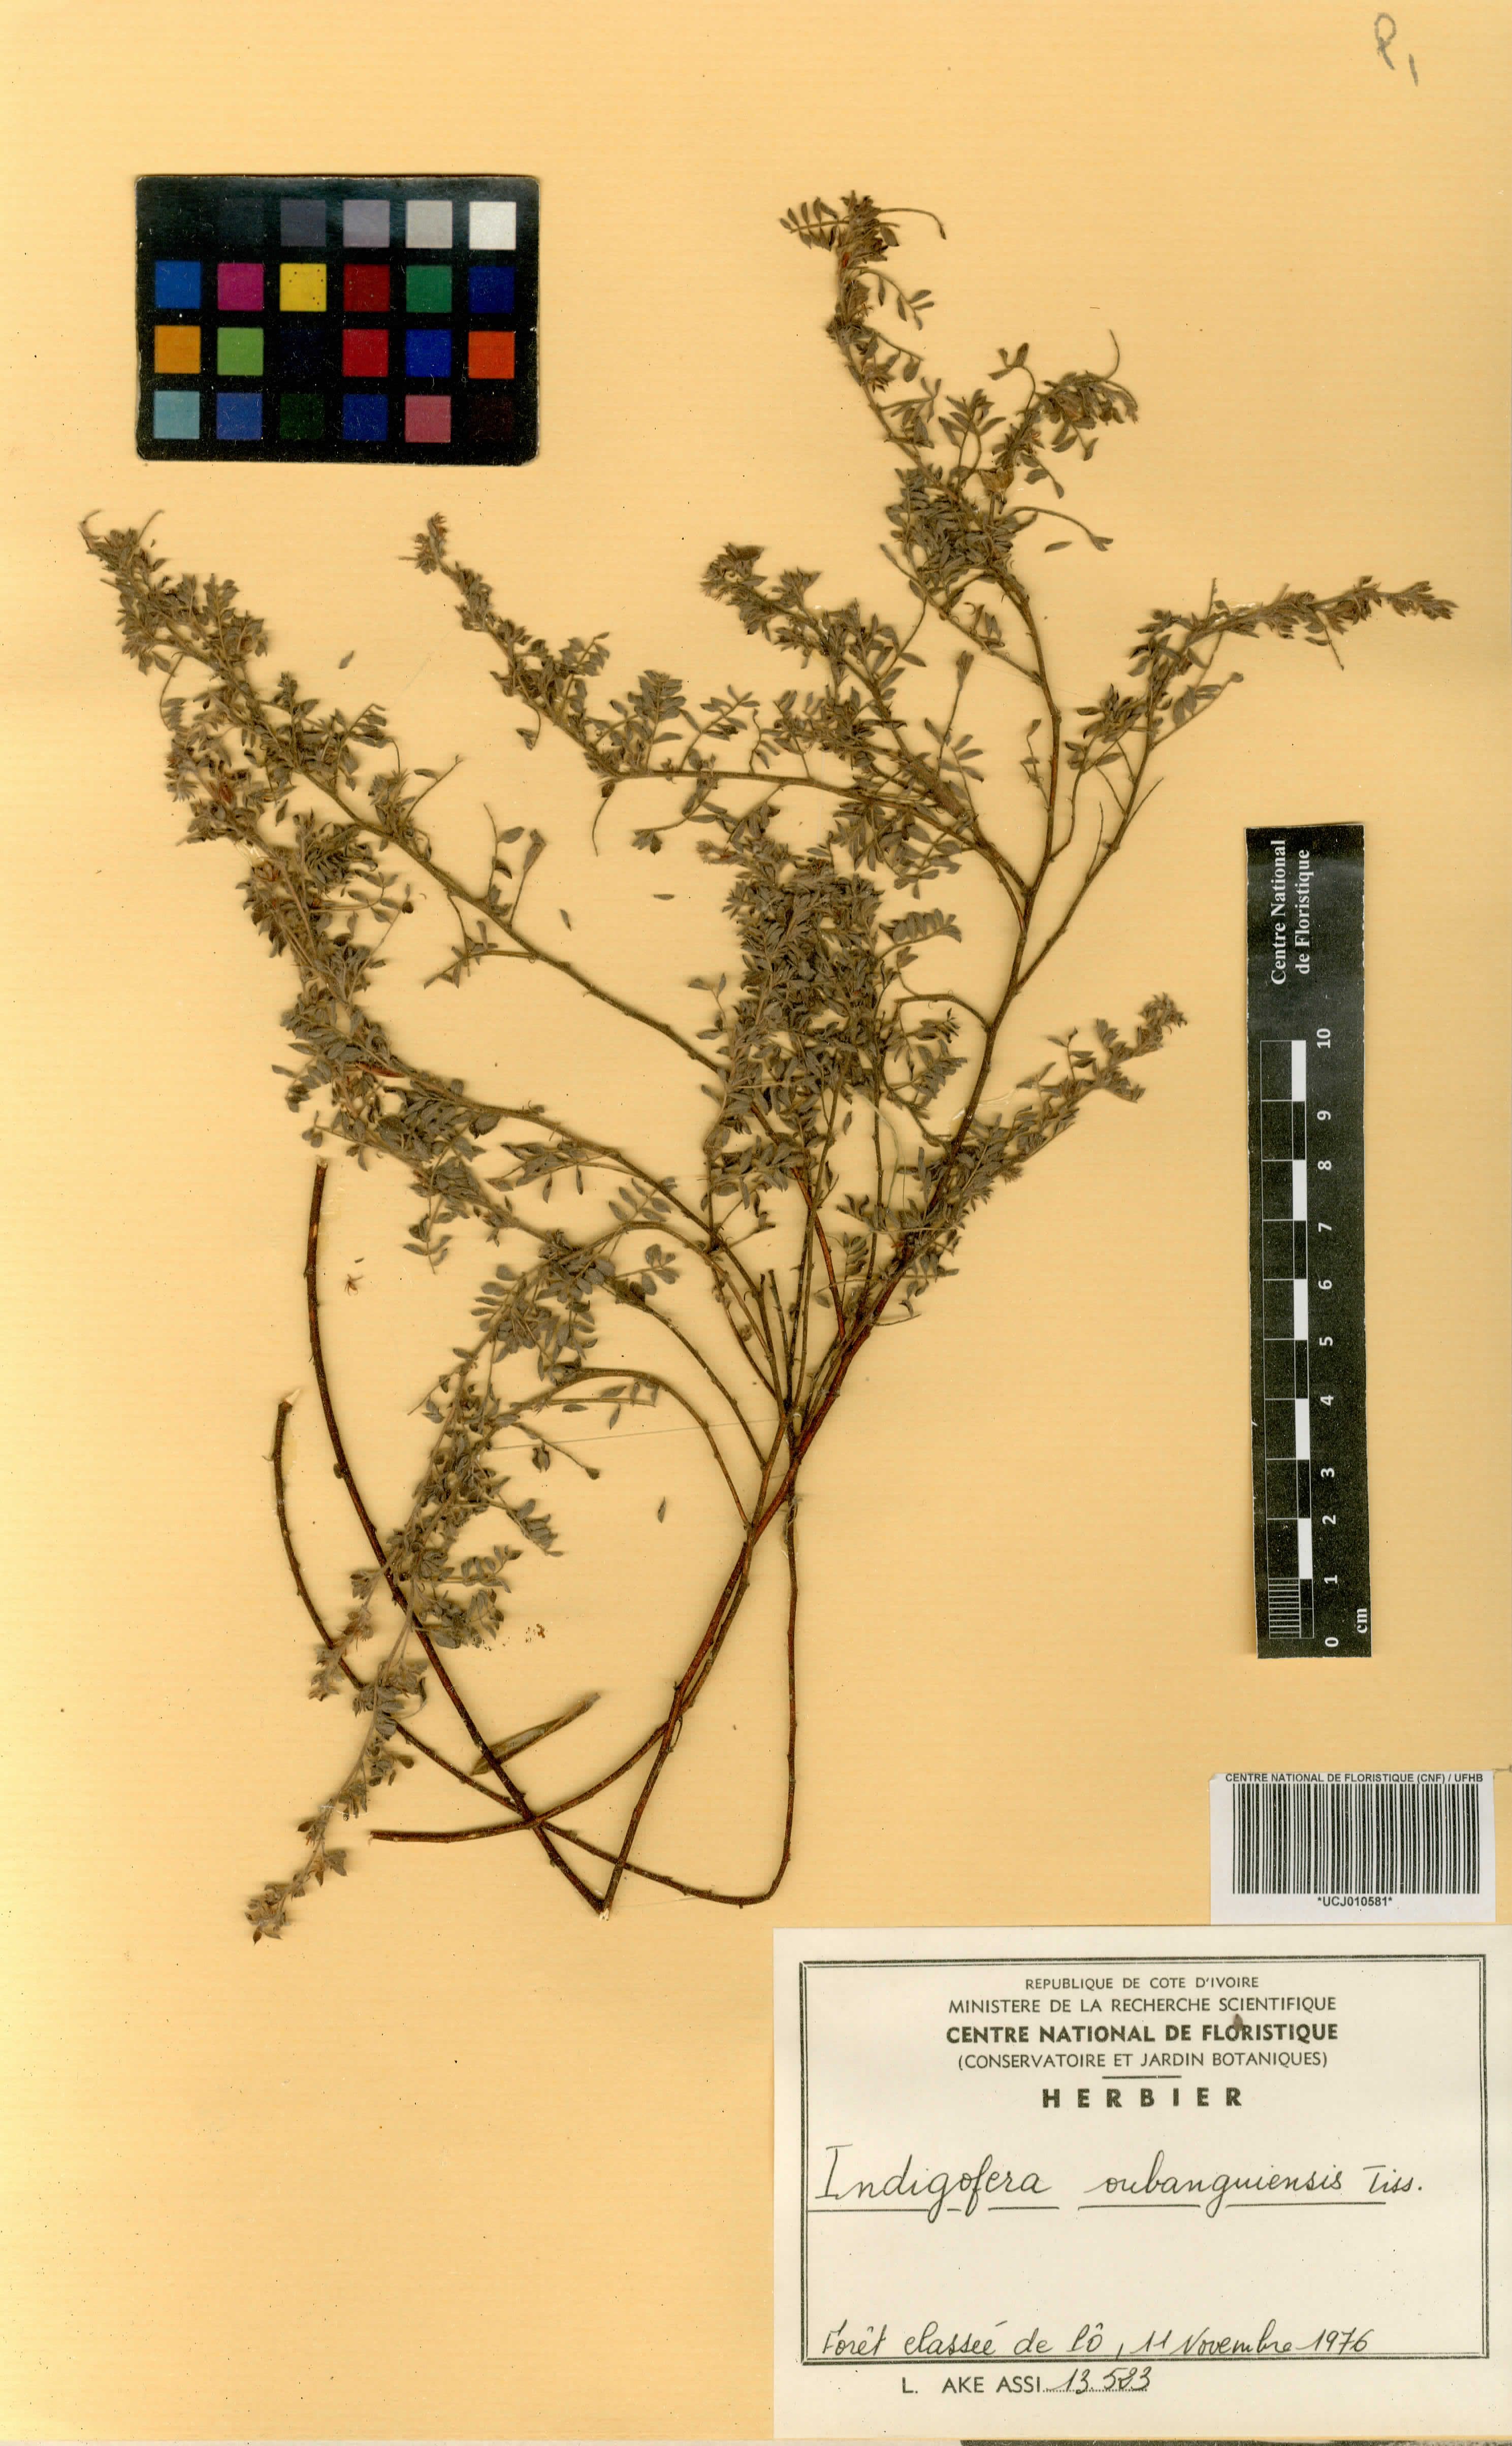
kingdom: Plantae
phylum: Tracheophyta
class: Magnoliopsida
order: Fabales
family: Fabaceae
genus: Indigofera
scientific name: Indigofera oubanguiensis
